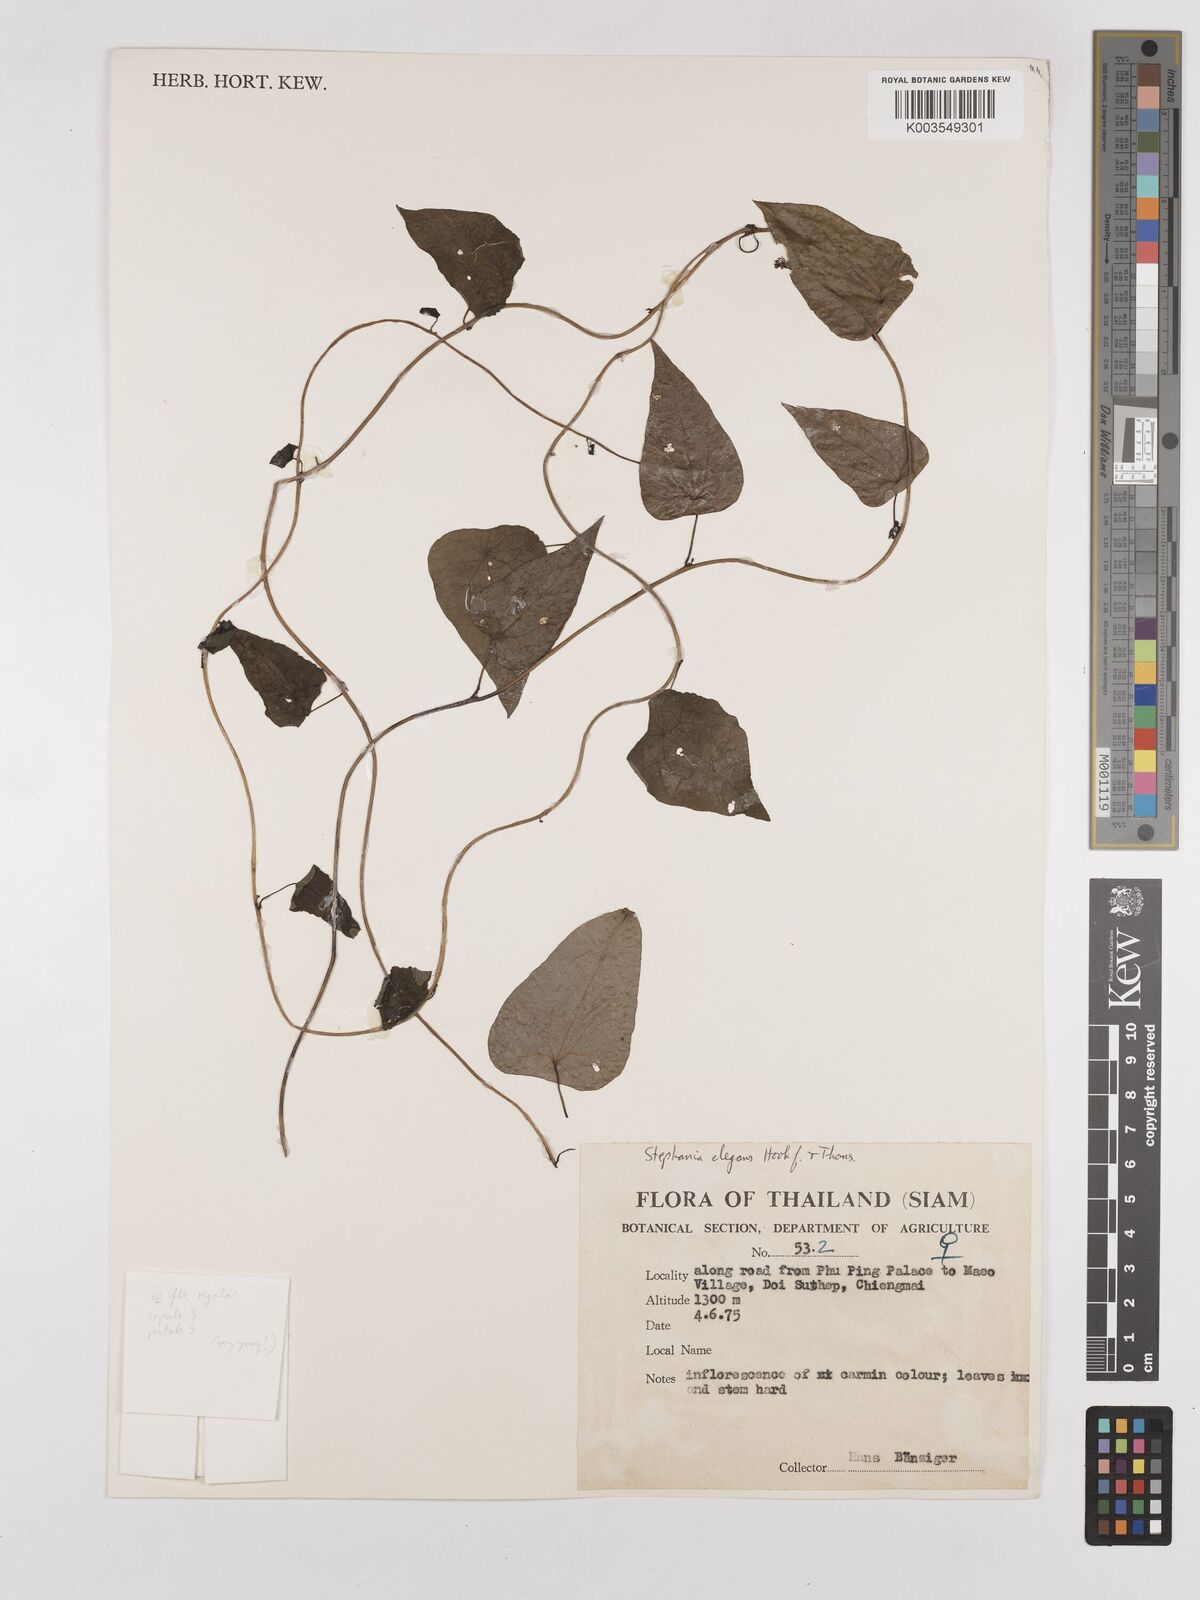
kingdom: Plantae
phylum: Tracheophyta
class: Magnoliopsida
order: Ranunculales
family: Menispermaceae
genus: Stephania
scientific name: Stephania elegans
